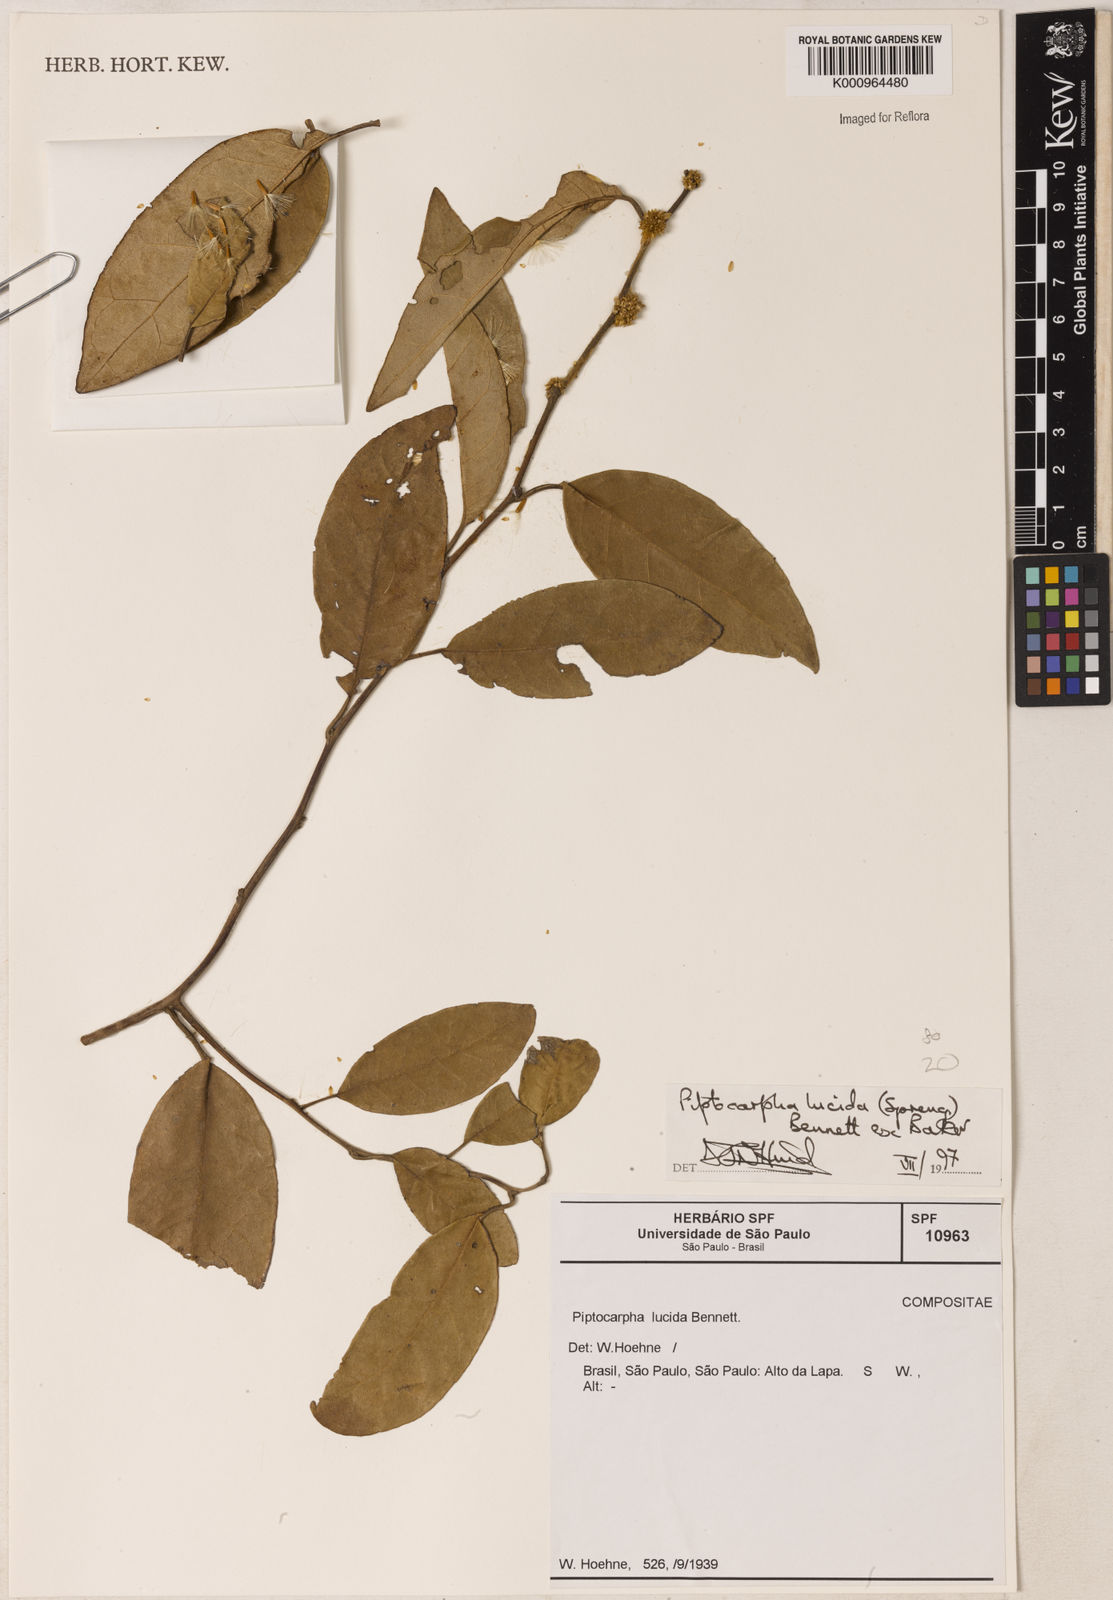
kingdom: Plantae
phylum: Tracheophyta
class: Magnoliopsida
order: Asterales
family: Asteraceae
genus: Piptocarpha
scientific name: Piptocarpha lucida
